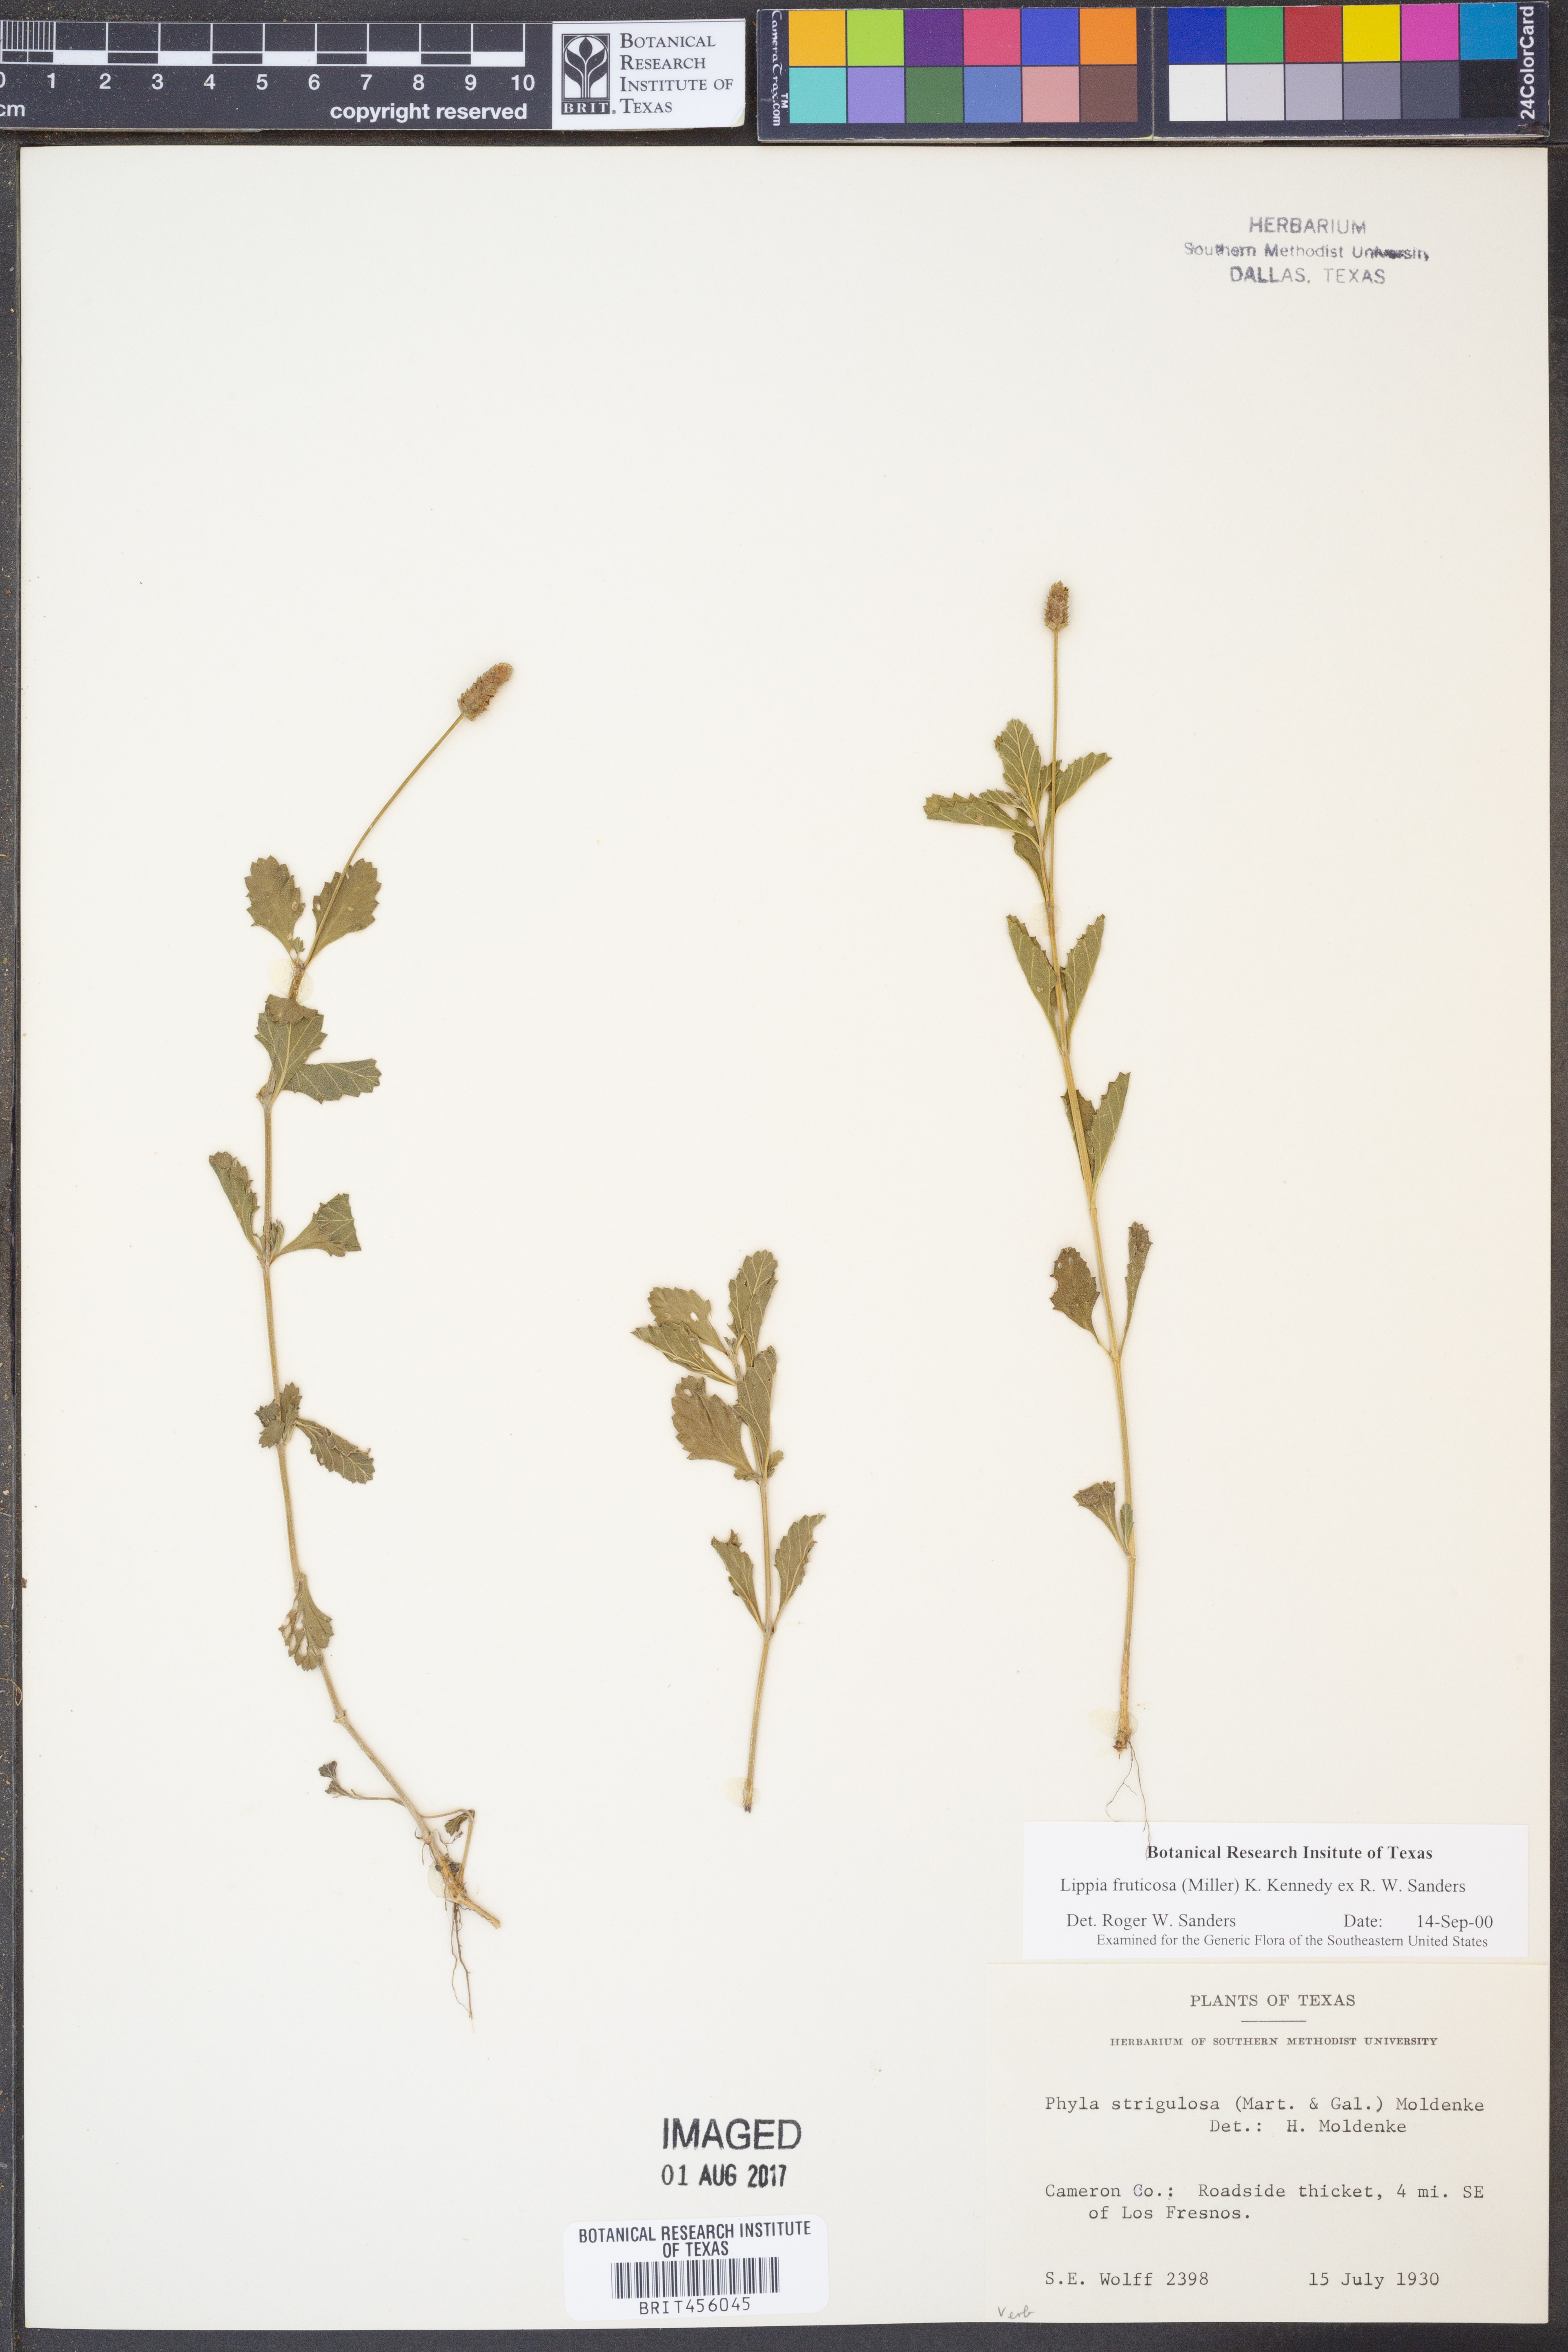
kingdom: Plantae
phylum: Tracheophyta
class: Magnoliopsida
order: Lamiales
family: Verbenaceae
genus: Phyla
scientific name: Phyla nodiflora
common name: Frogfruit
